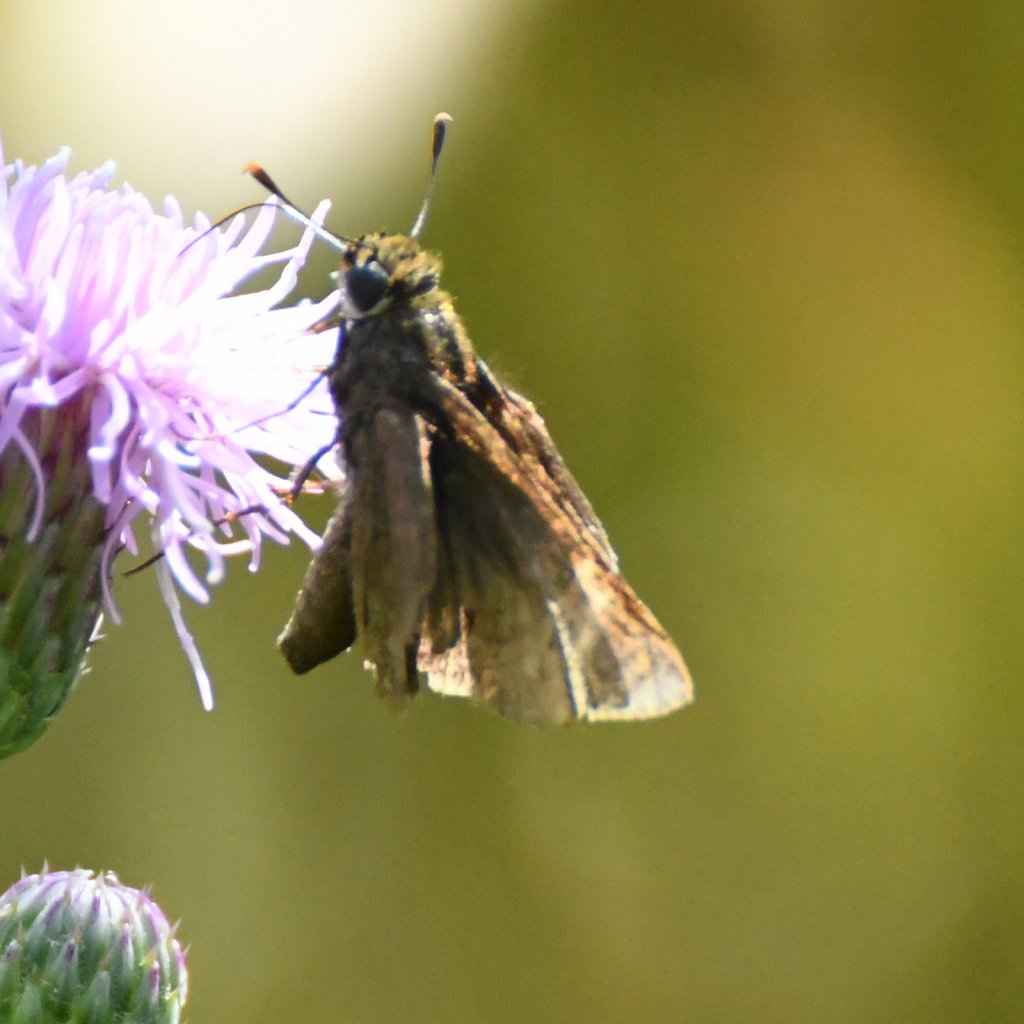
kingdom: Animalia
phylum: Arthropoda
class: Insecta
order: Lepidoptera
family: Hesperiidae
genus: Euphyes
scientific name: Euphyes vestris
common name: Dun Skipper
